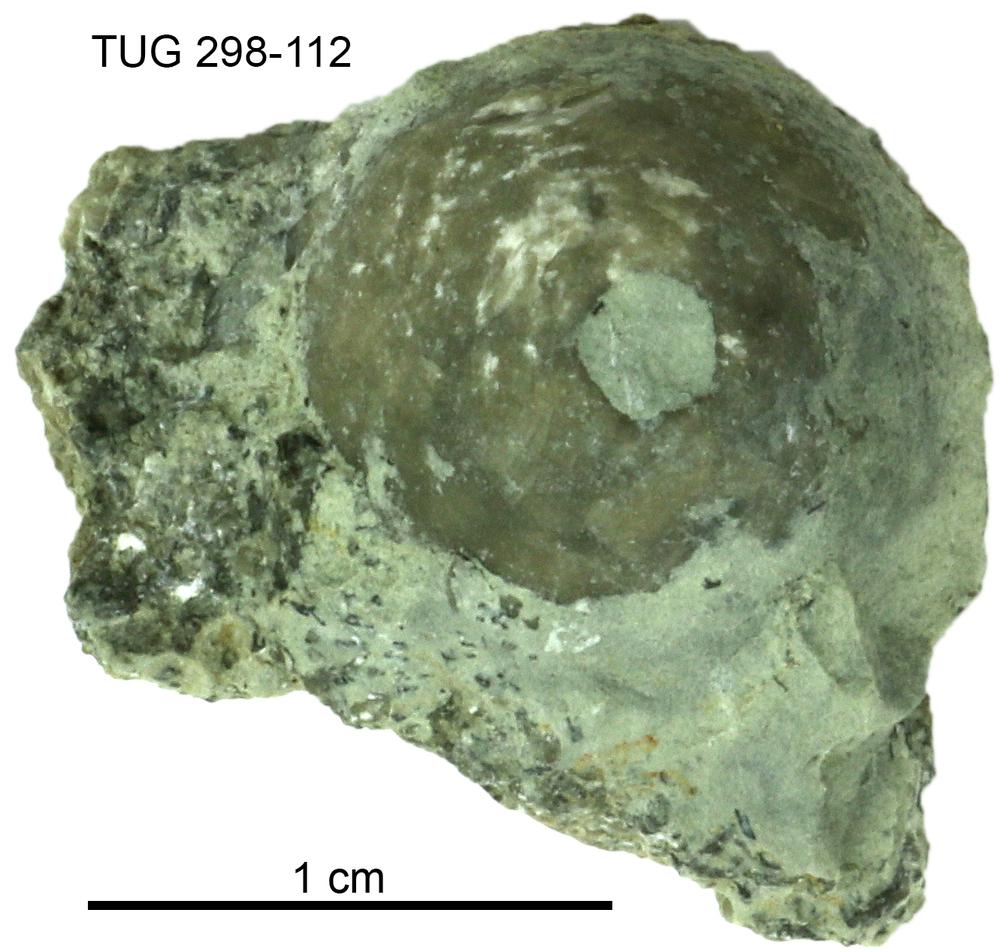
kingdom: Animalia
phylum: Echinodermata
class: Crinoidea
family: Eucalyptocrinitidae
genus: Eucalyptocrinites
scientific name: Eucalyptocrinites
